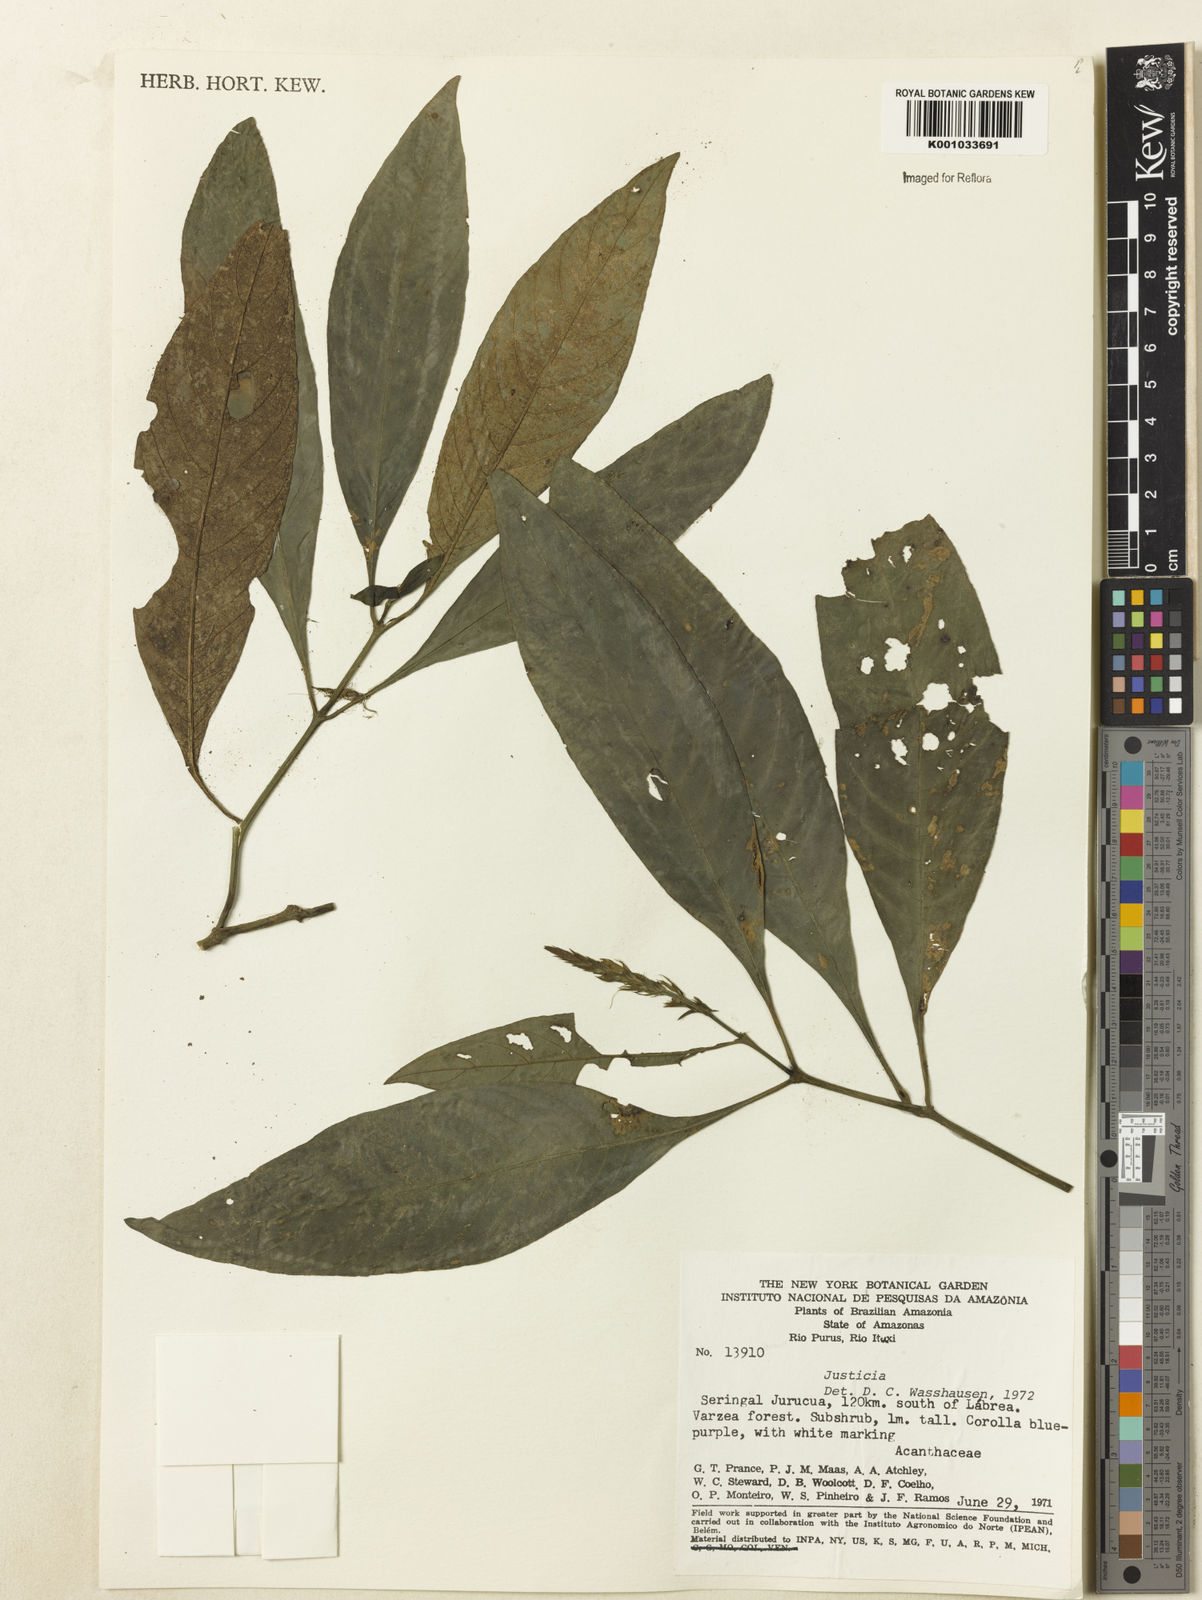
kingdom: Plantae
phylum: Tracheophyta
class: Magnoliopsida
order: Lamiales
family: Acanthaceae
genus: Justicia
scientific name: Justicia
